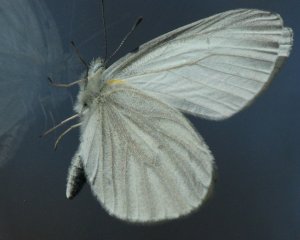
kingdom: Animalia
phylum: Arthropoda
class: Insecta
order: Lepidoptera
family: Pieridae
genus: Pieris
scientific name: Pieris virginiensis
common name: West Virginia White
